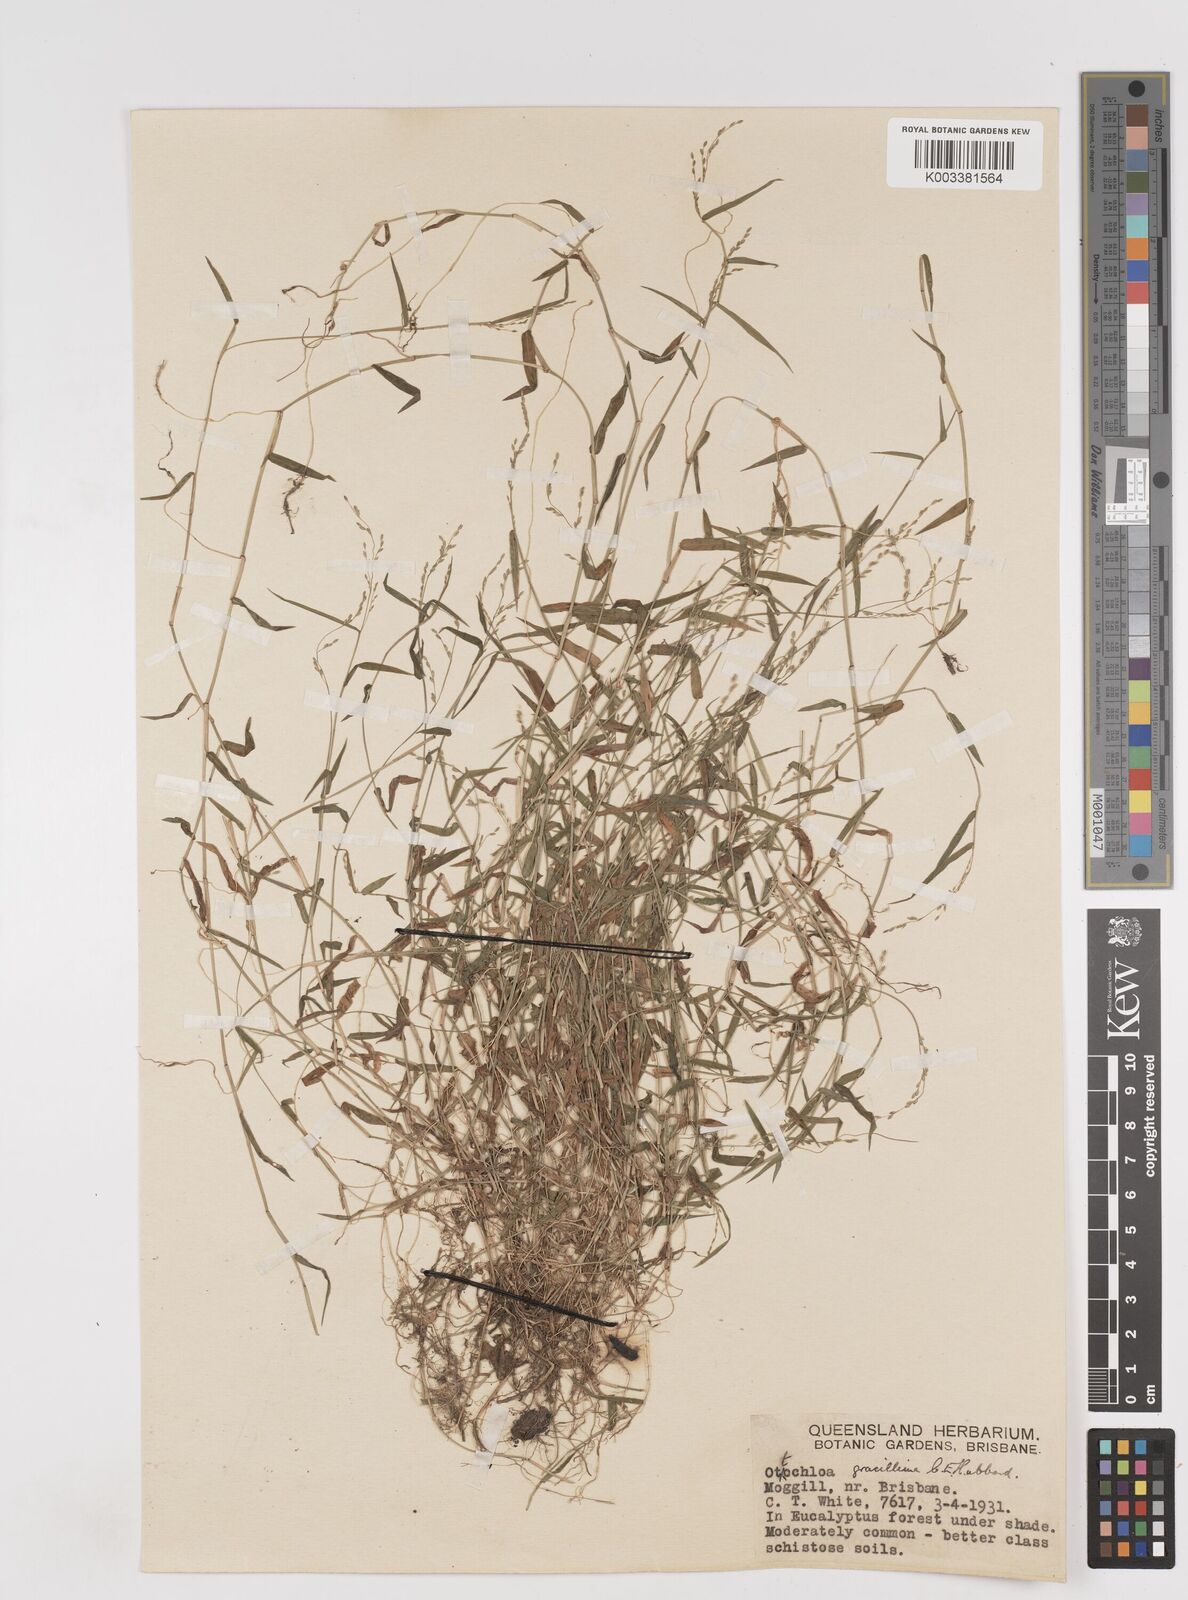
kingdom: Plantae
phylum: Tracheophyta
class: Liliopsida
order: Poales
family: Poaceae
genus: Ottochloa
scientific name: Ottochloa gracillima
